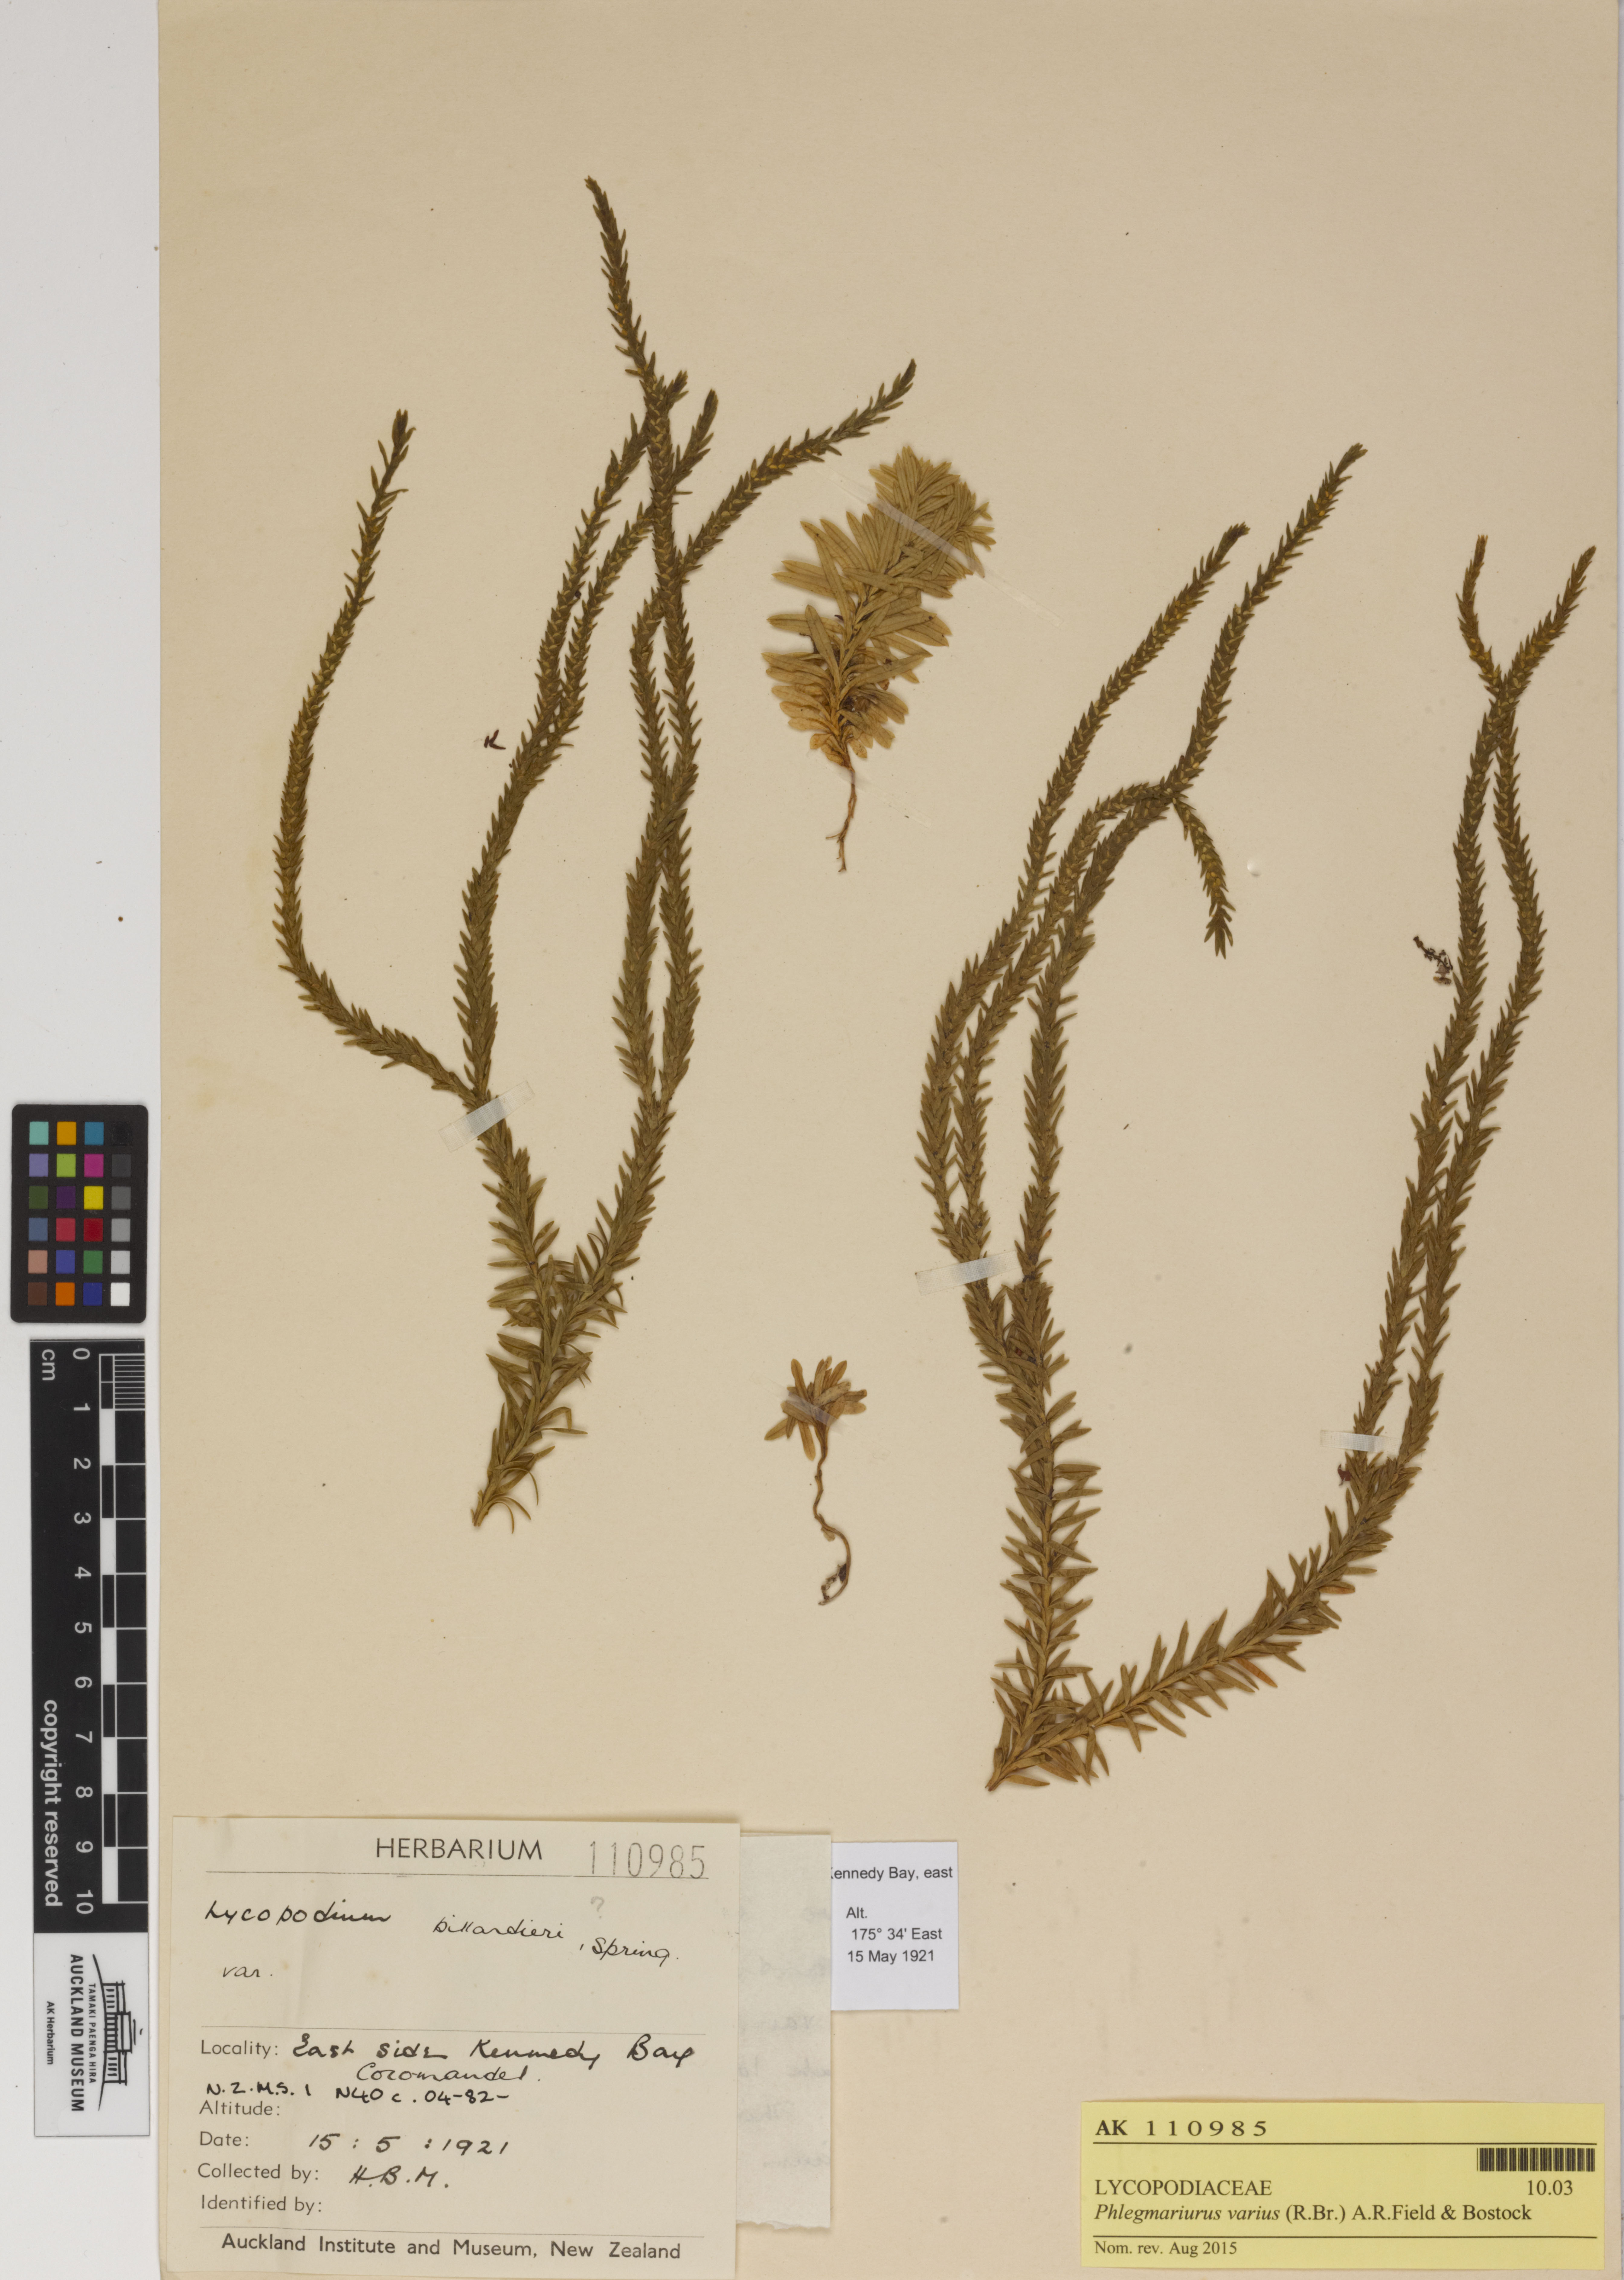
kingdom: Plantae
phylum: Tracheophyta
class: Lycopodiopsida
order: Lycopodiales
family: Lycopodiaceae
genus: Phlegmariurus
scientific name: Phlegmariurus varius
